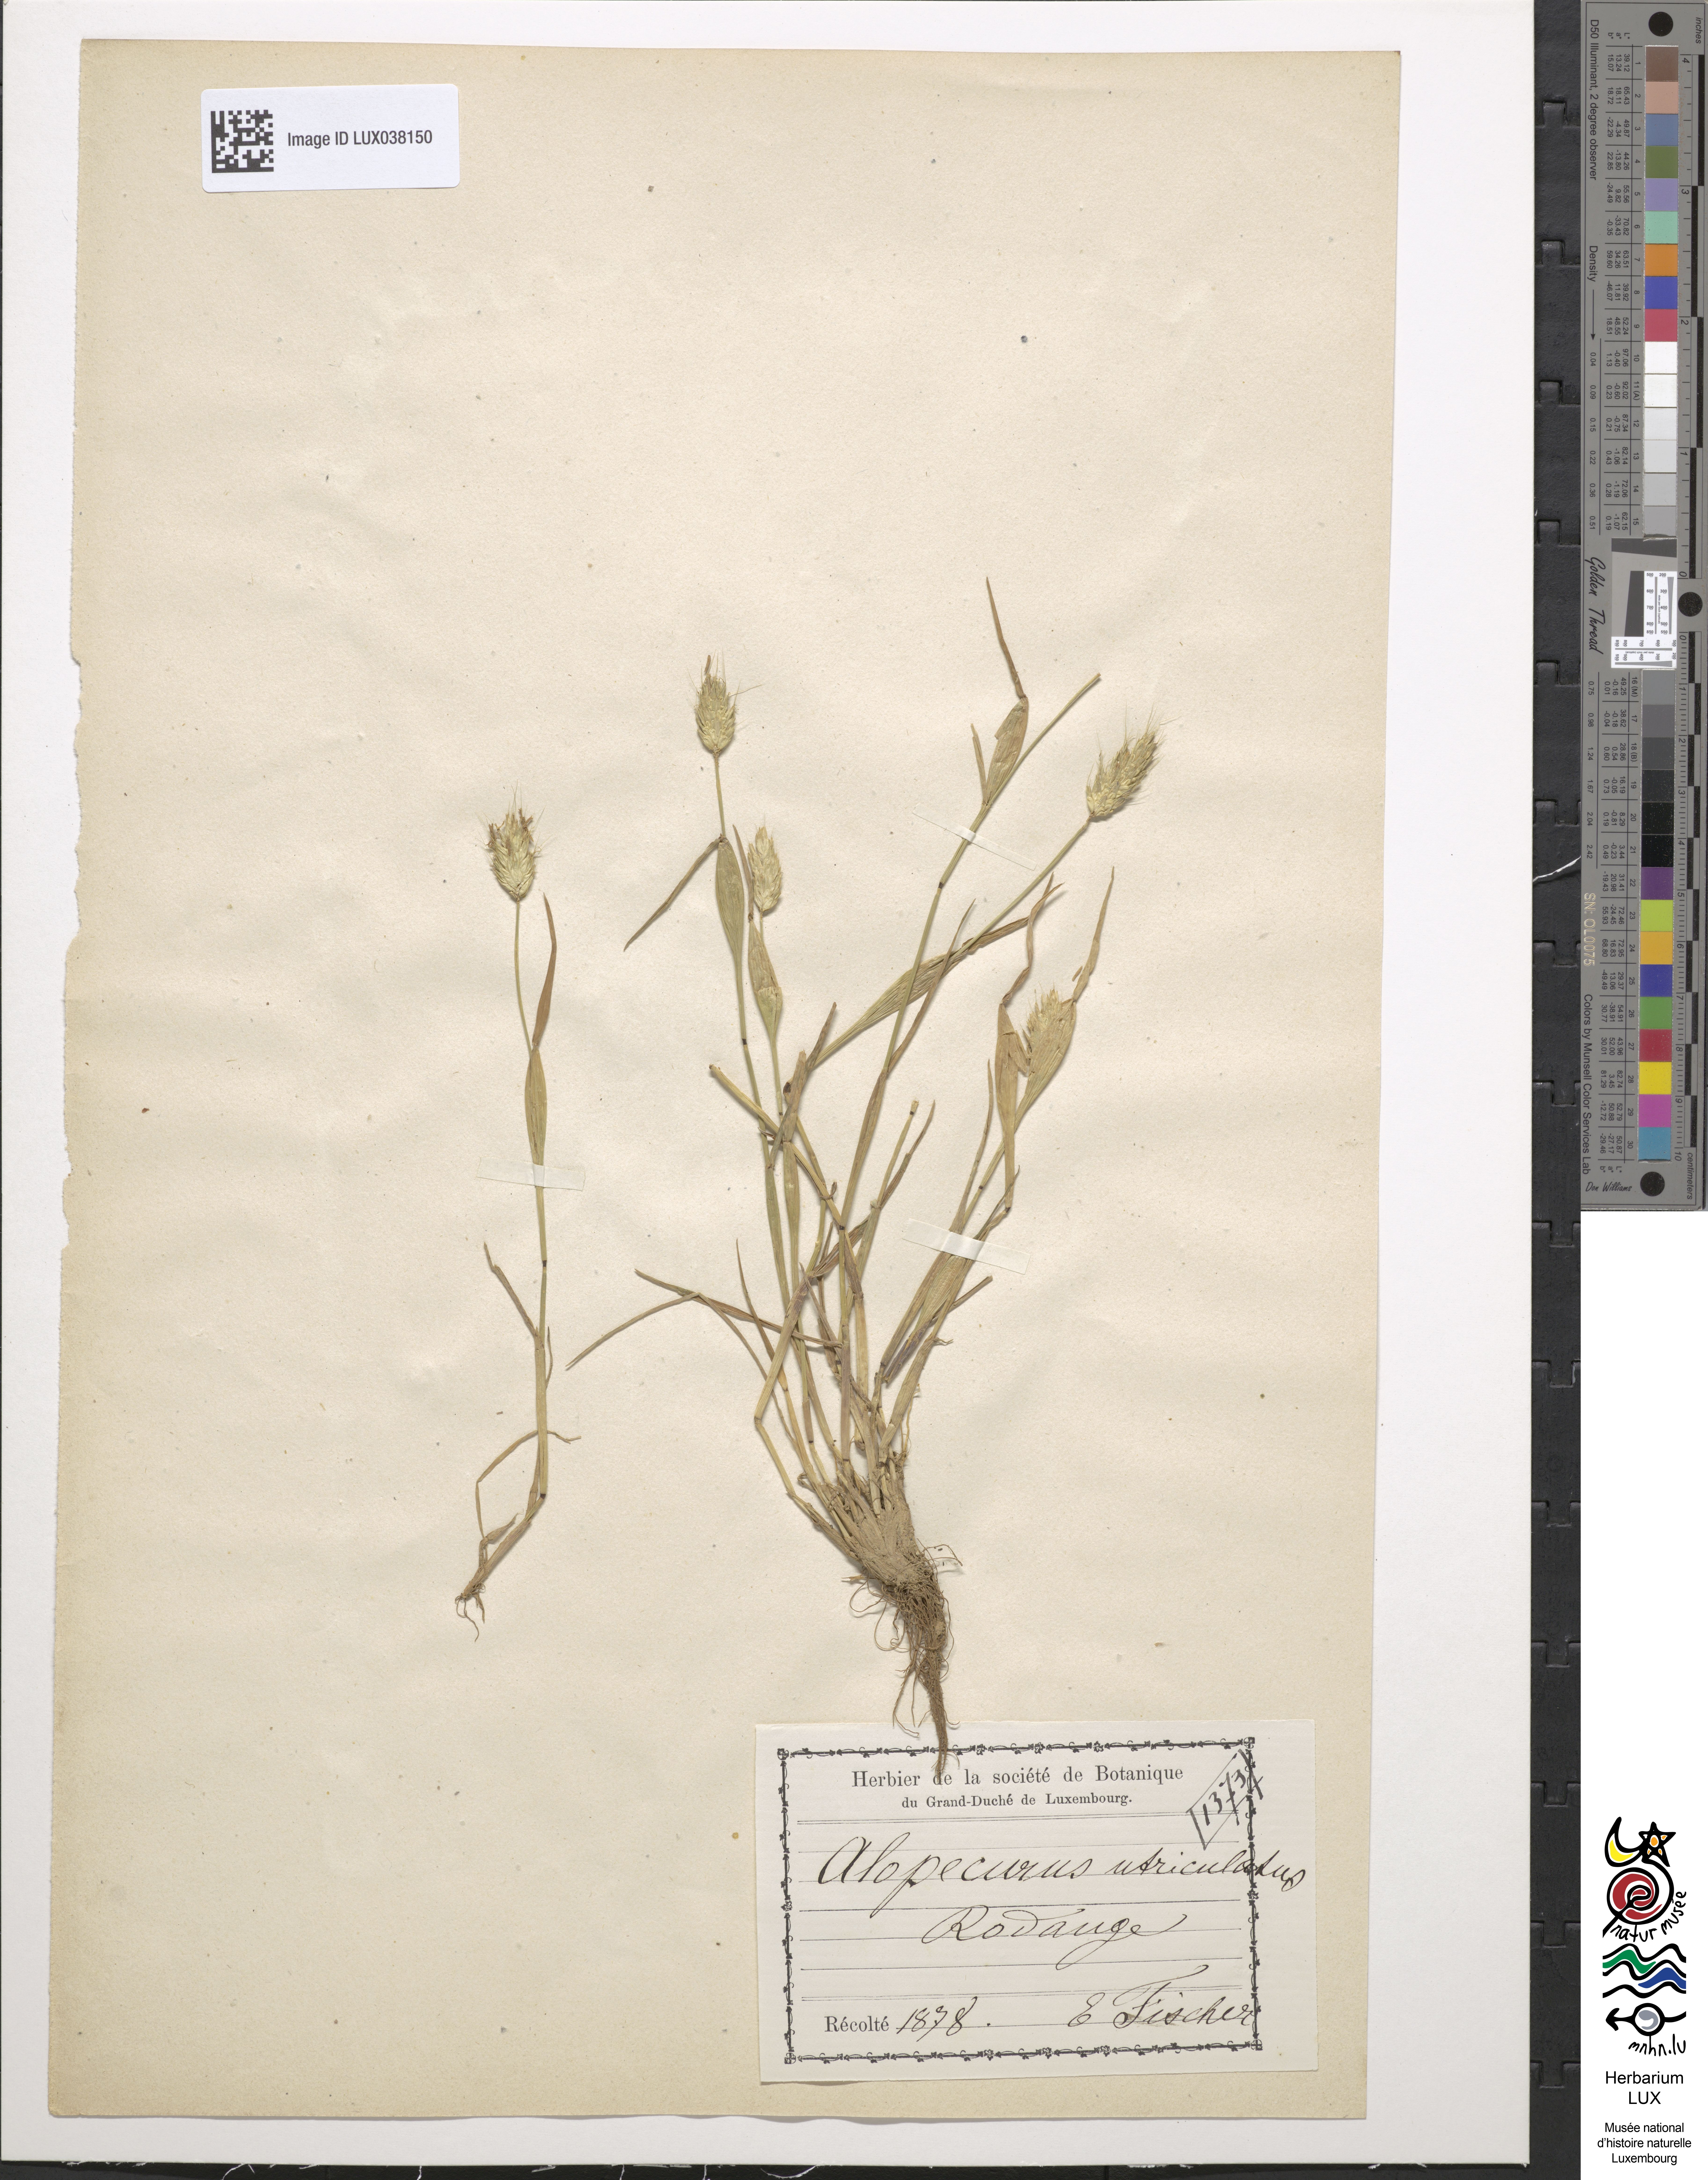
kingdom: Plantae
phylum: Tracheophyta
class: Liliopsida
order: Poales
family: Poaceae
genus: Alopecurus
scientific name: Alopecurus rendlei
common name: Rendle's meadow foxtail
